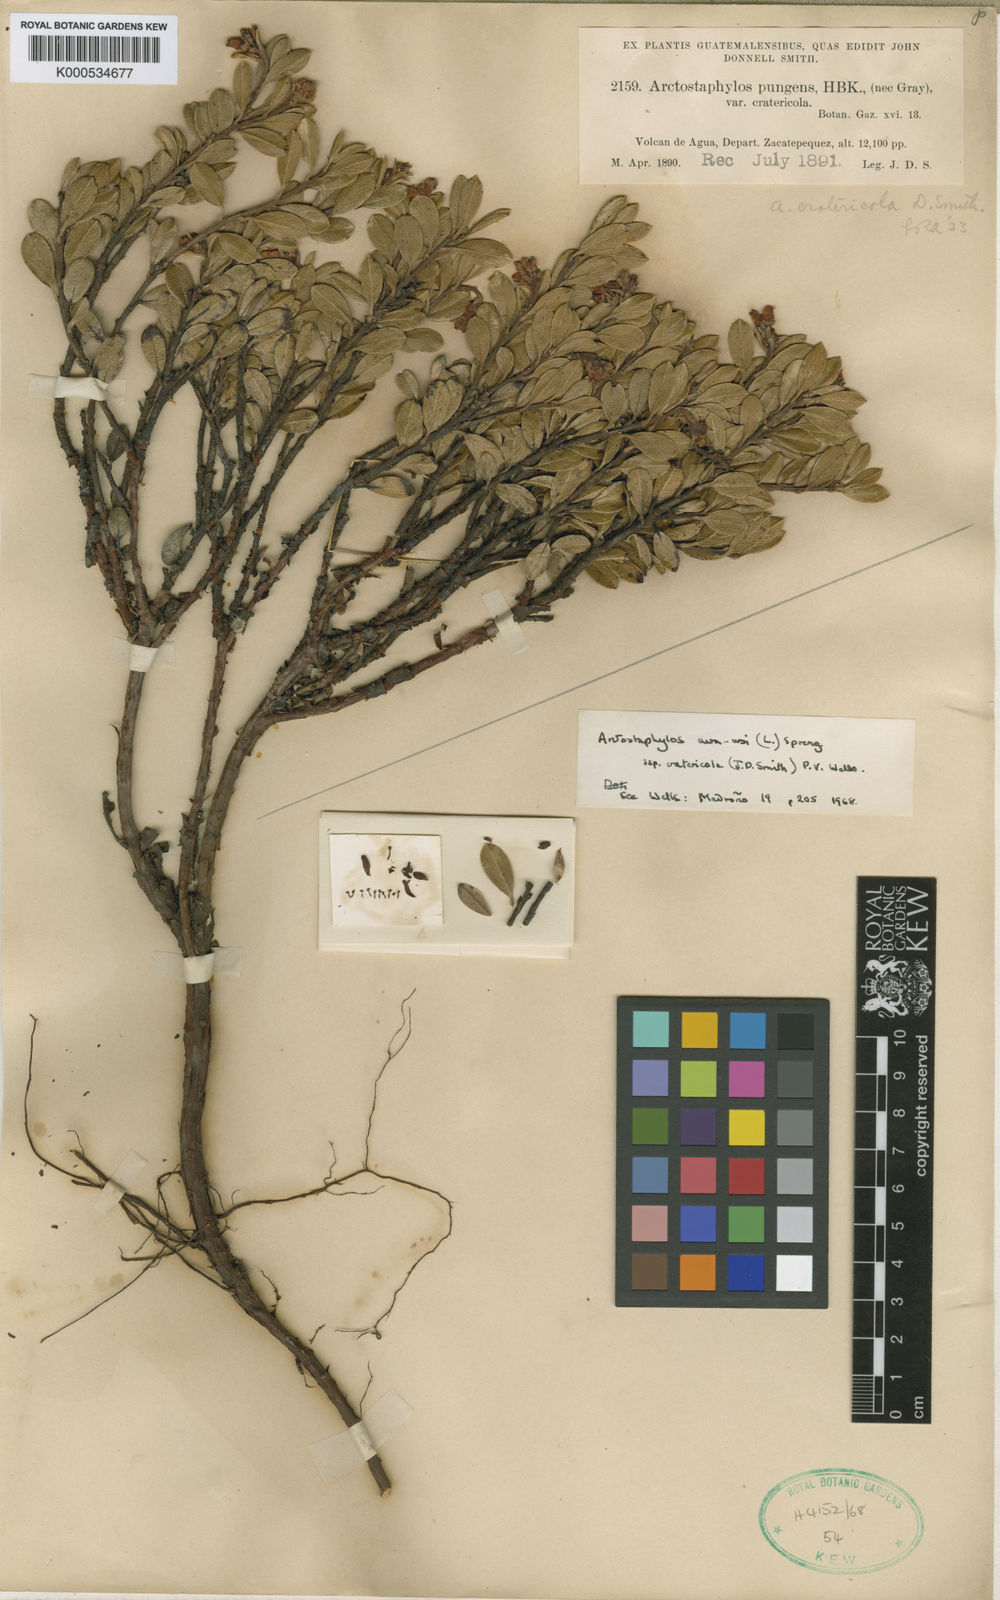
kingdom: Plantae
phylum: Tracheophyta
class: Magnoliopsida
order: Ericales
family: Ericaceae
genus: Arctostaphylos
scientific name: Arctostaphylos cratericola
